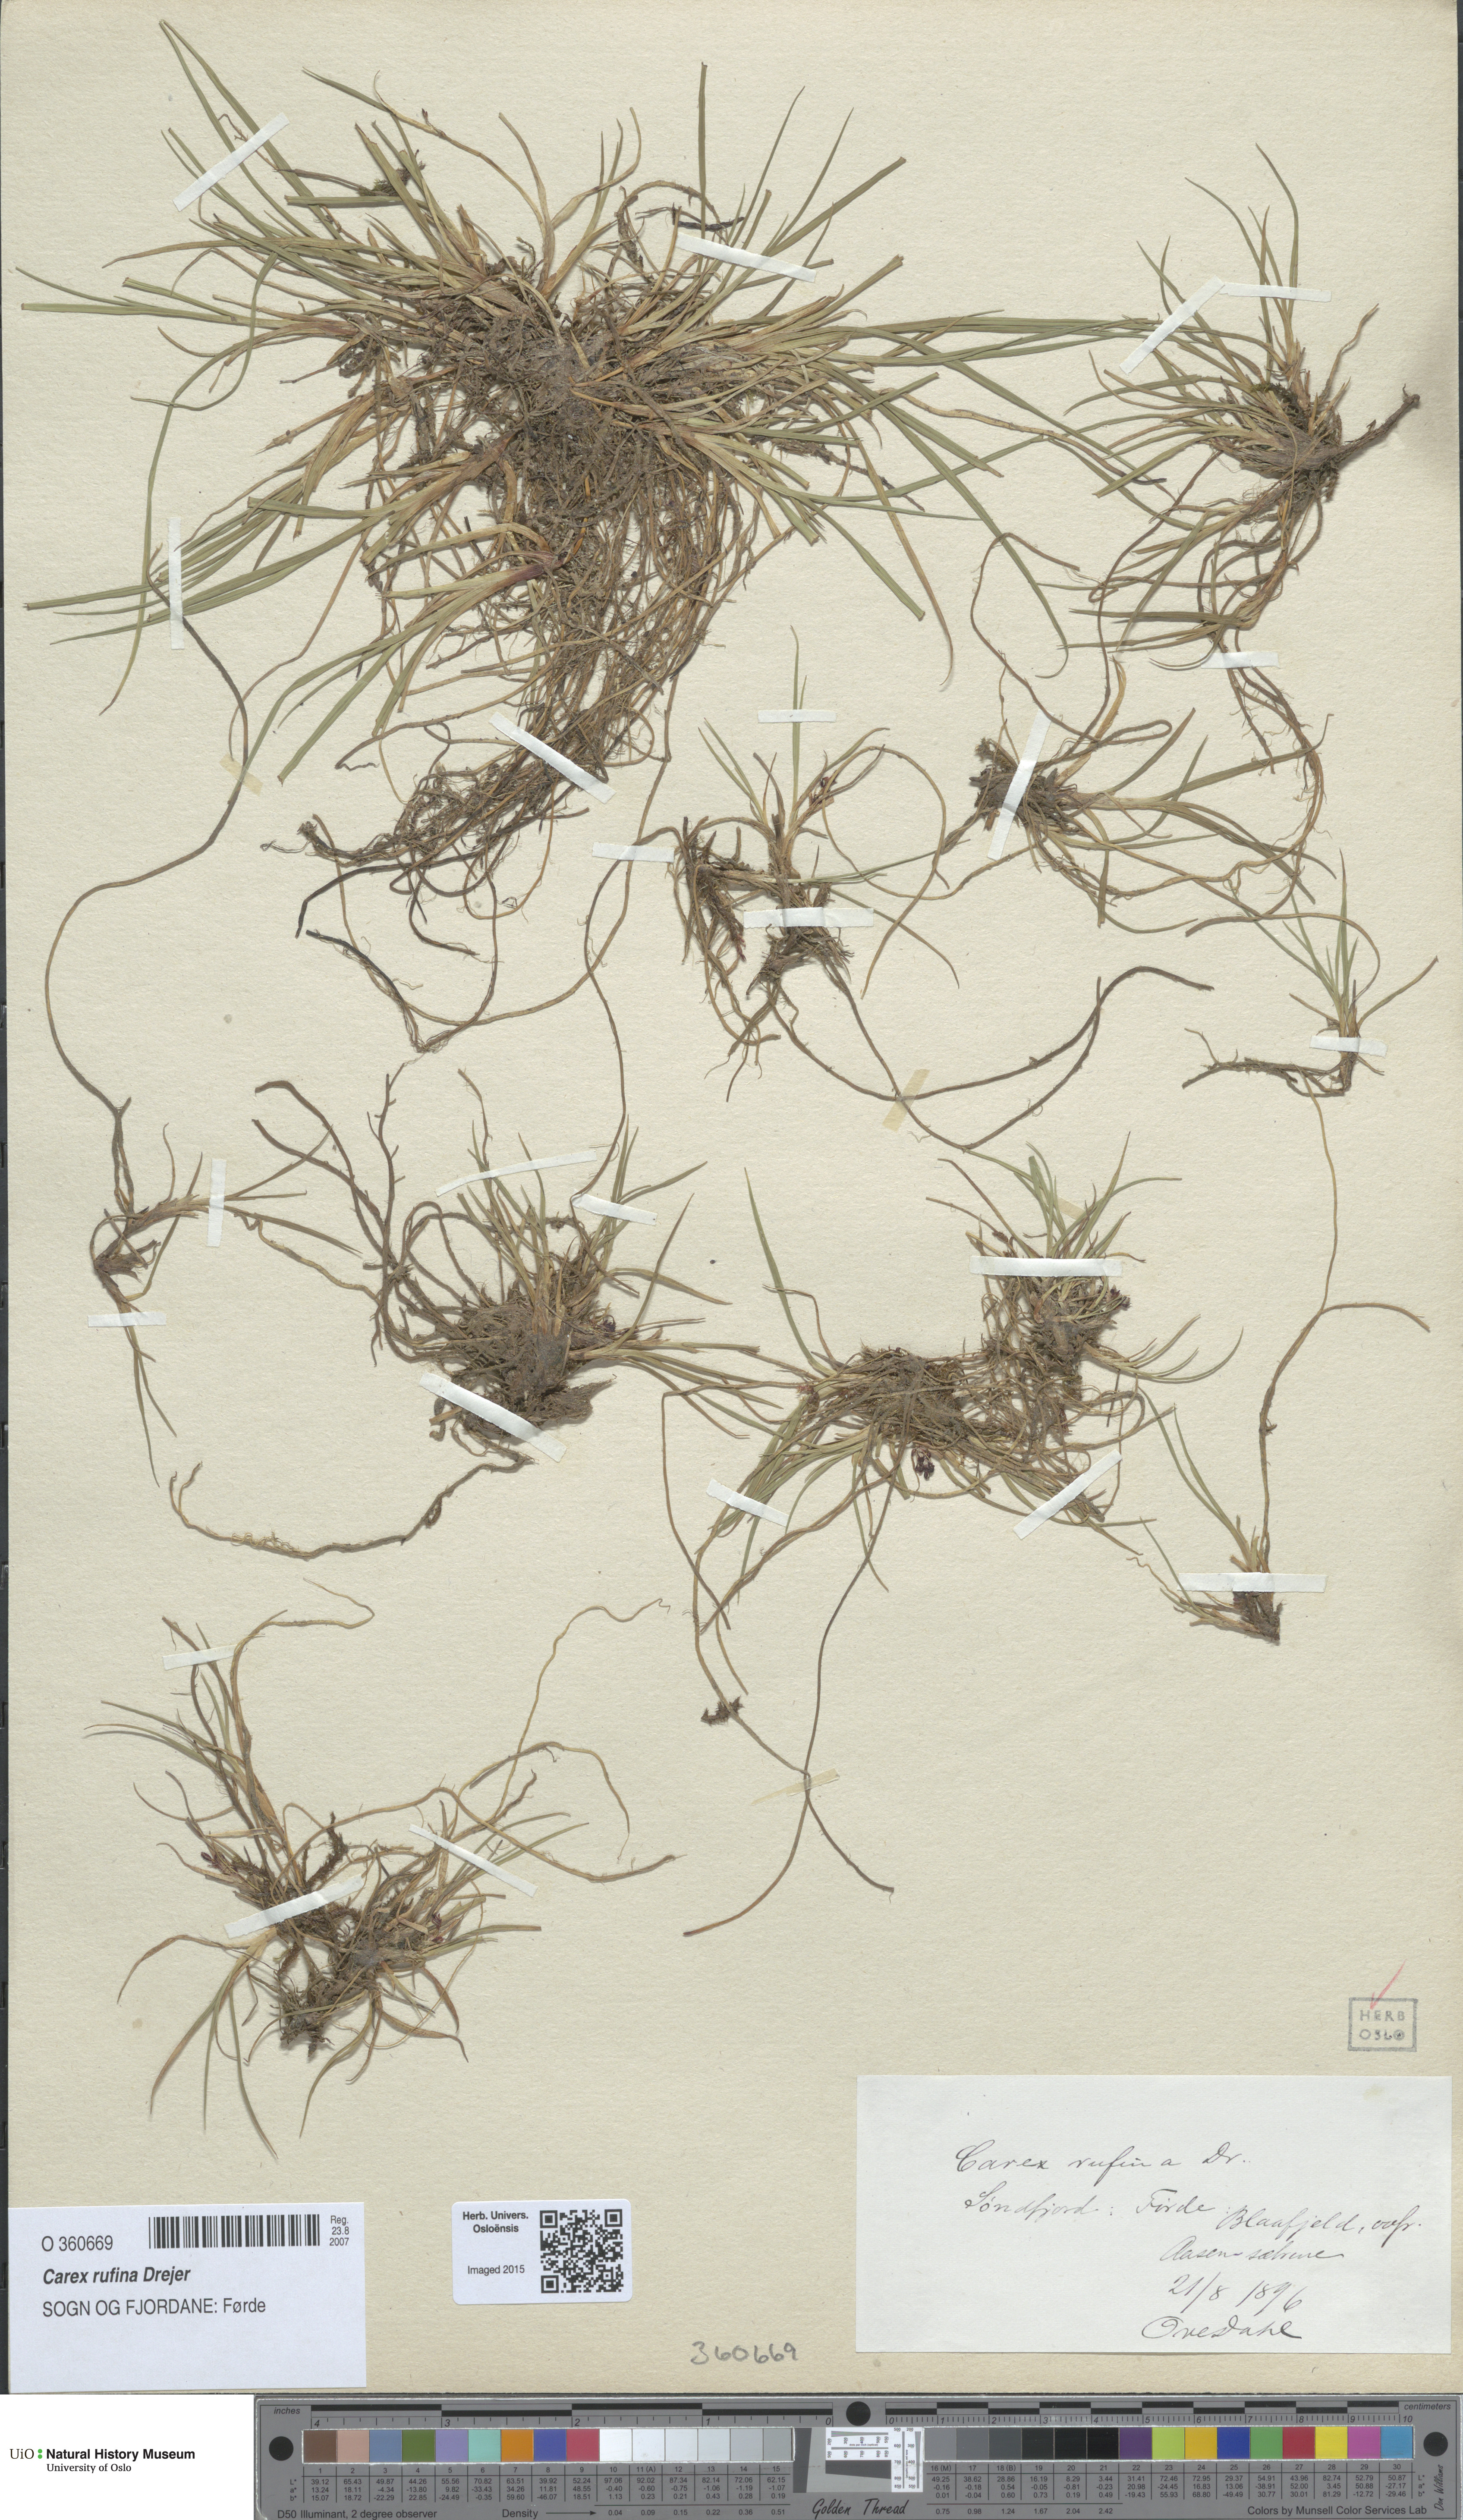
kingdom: Plantae
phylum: Tracheophyta
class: Liliopsida
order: Poales
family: Cyperaceae
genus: Carex
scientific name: Carex rufina
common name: Reddish sedge
